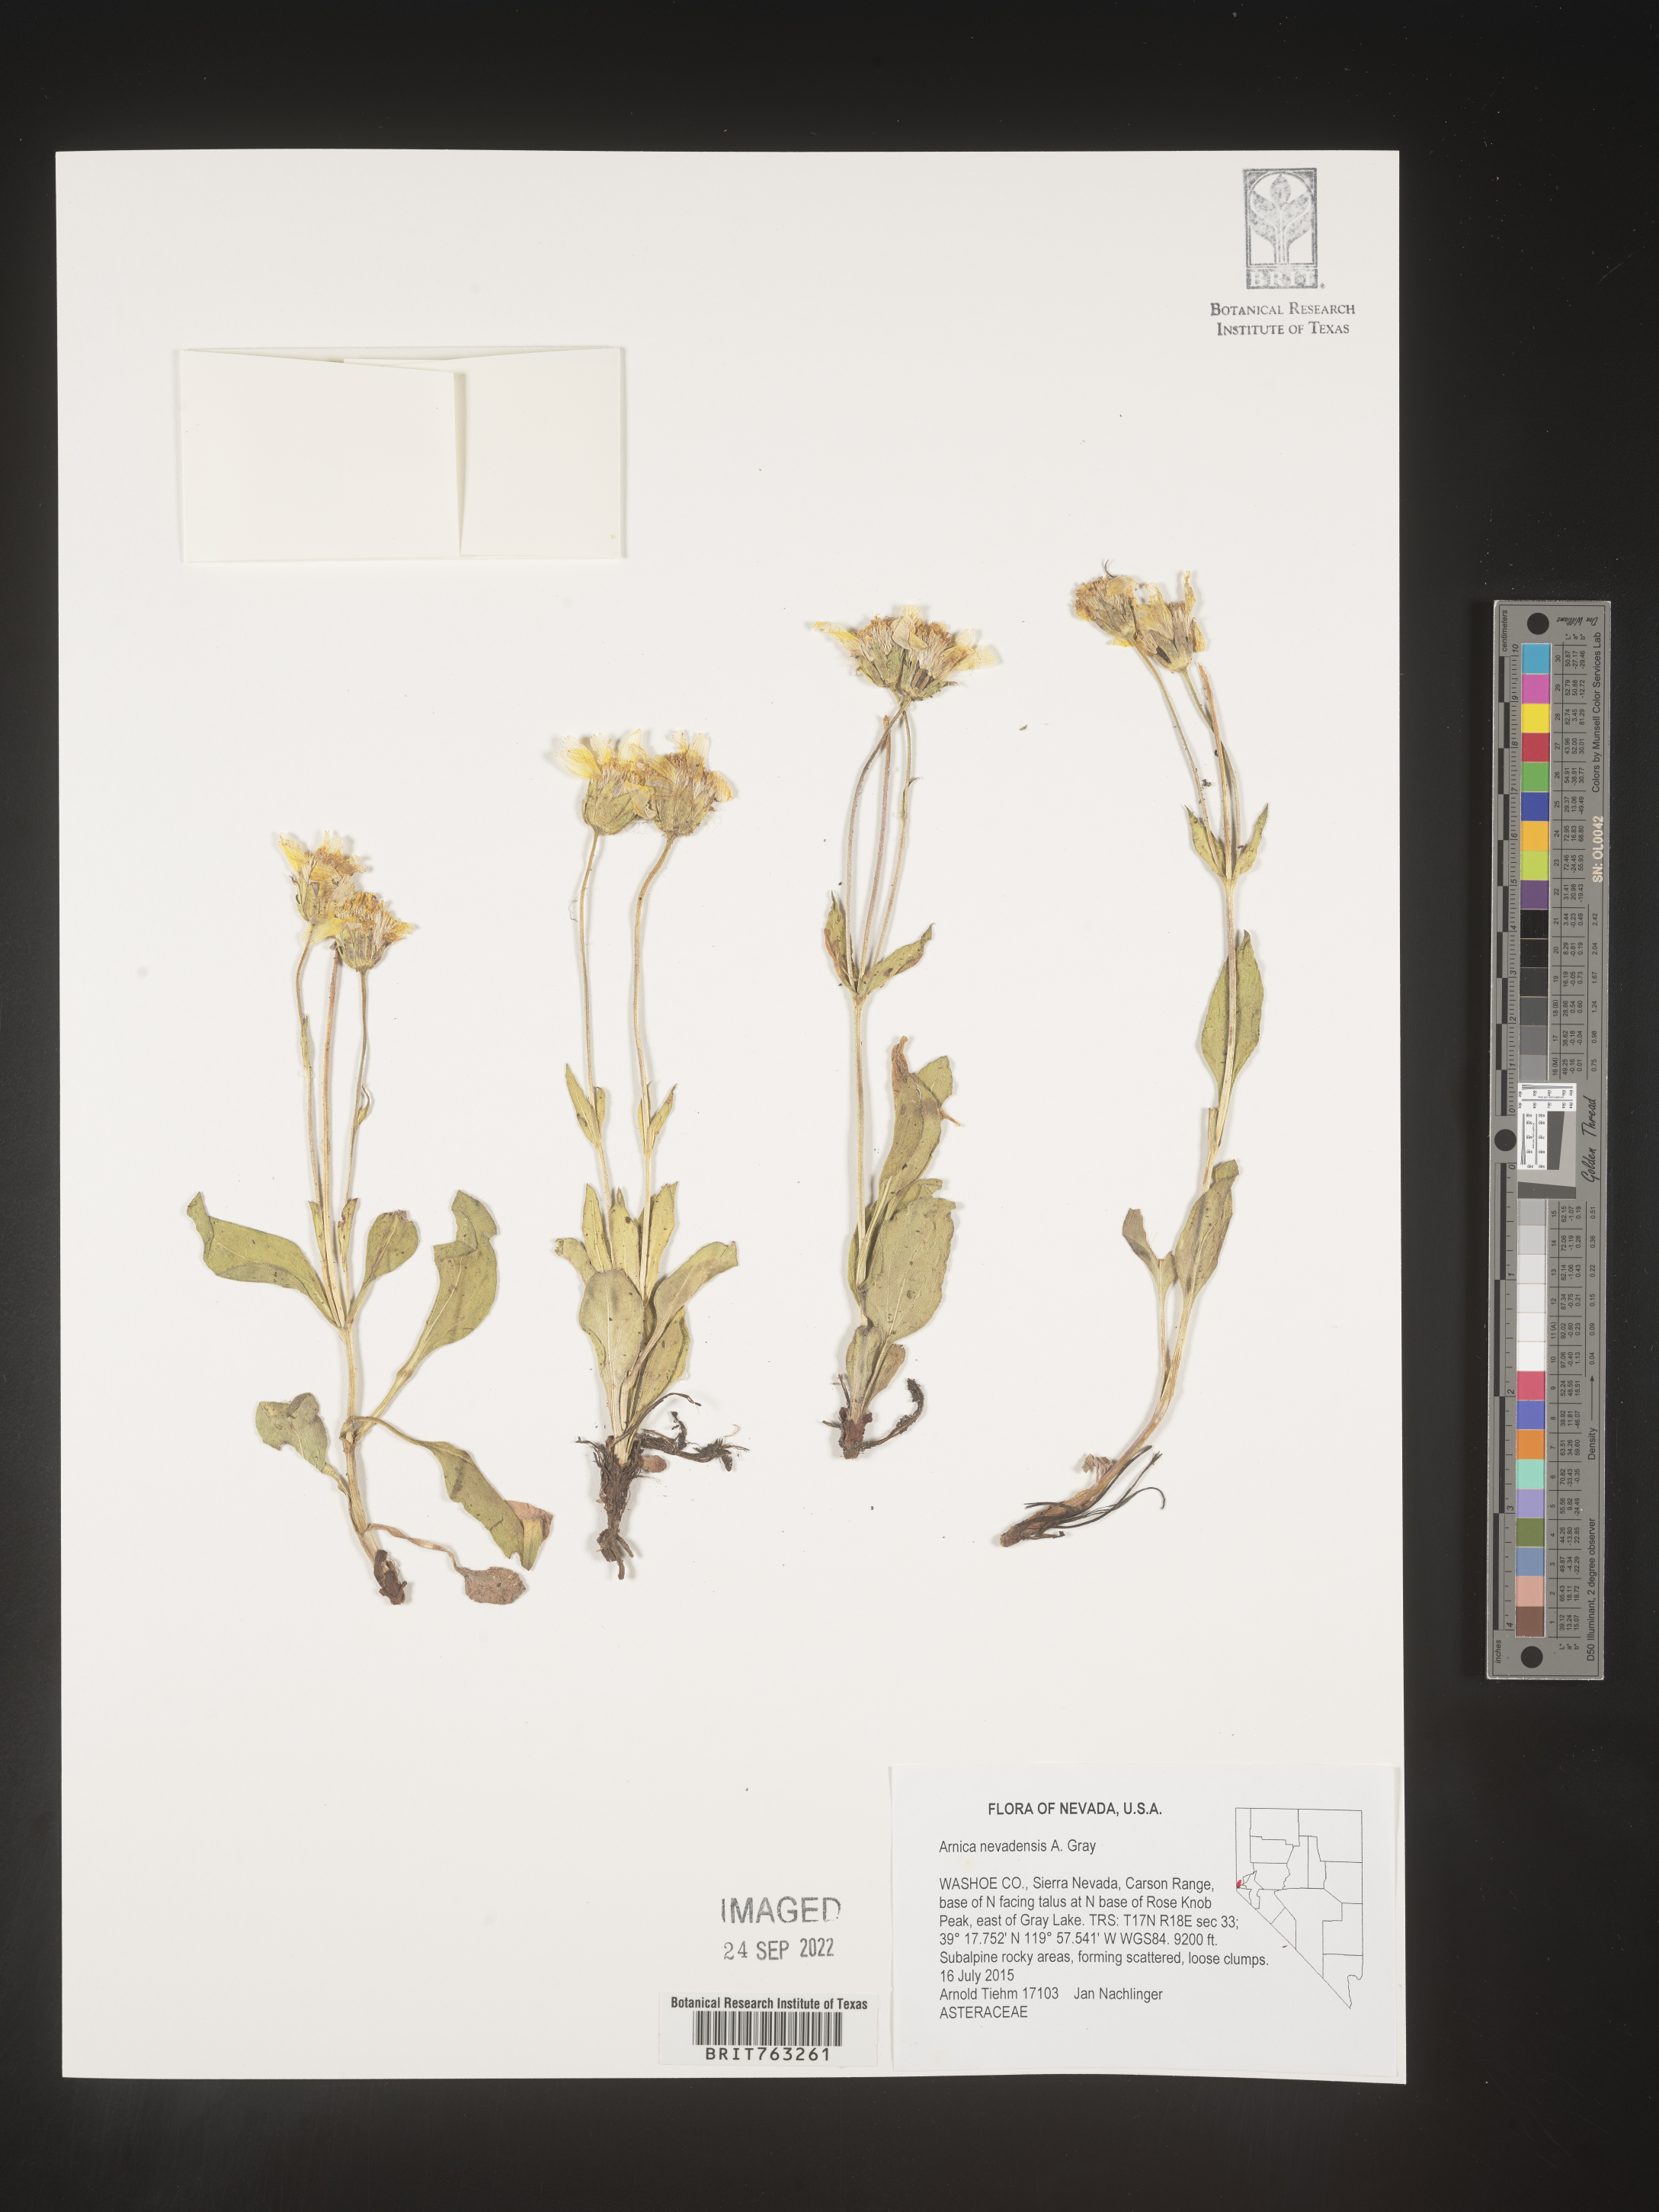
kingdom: Plantae
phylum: Tracheophyta
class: Magnoliopsida
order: Asterales
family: Asteraceae
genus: Arnica
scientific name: Arnica nevadensis
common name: Nevada arnica
